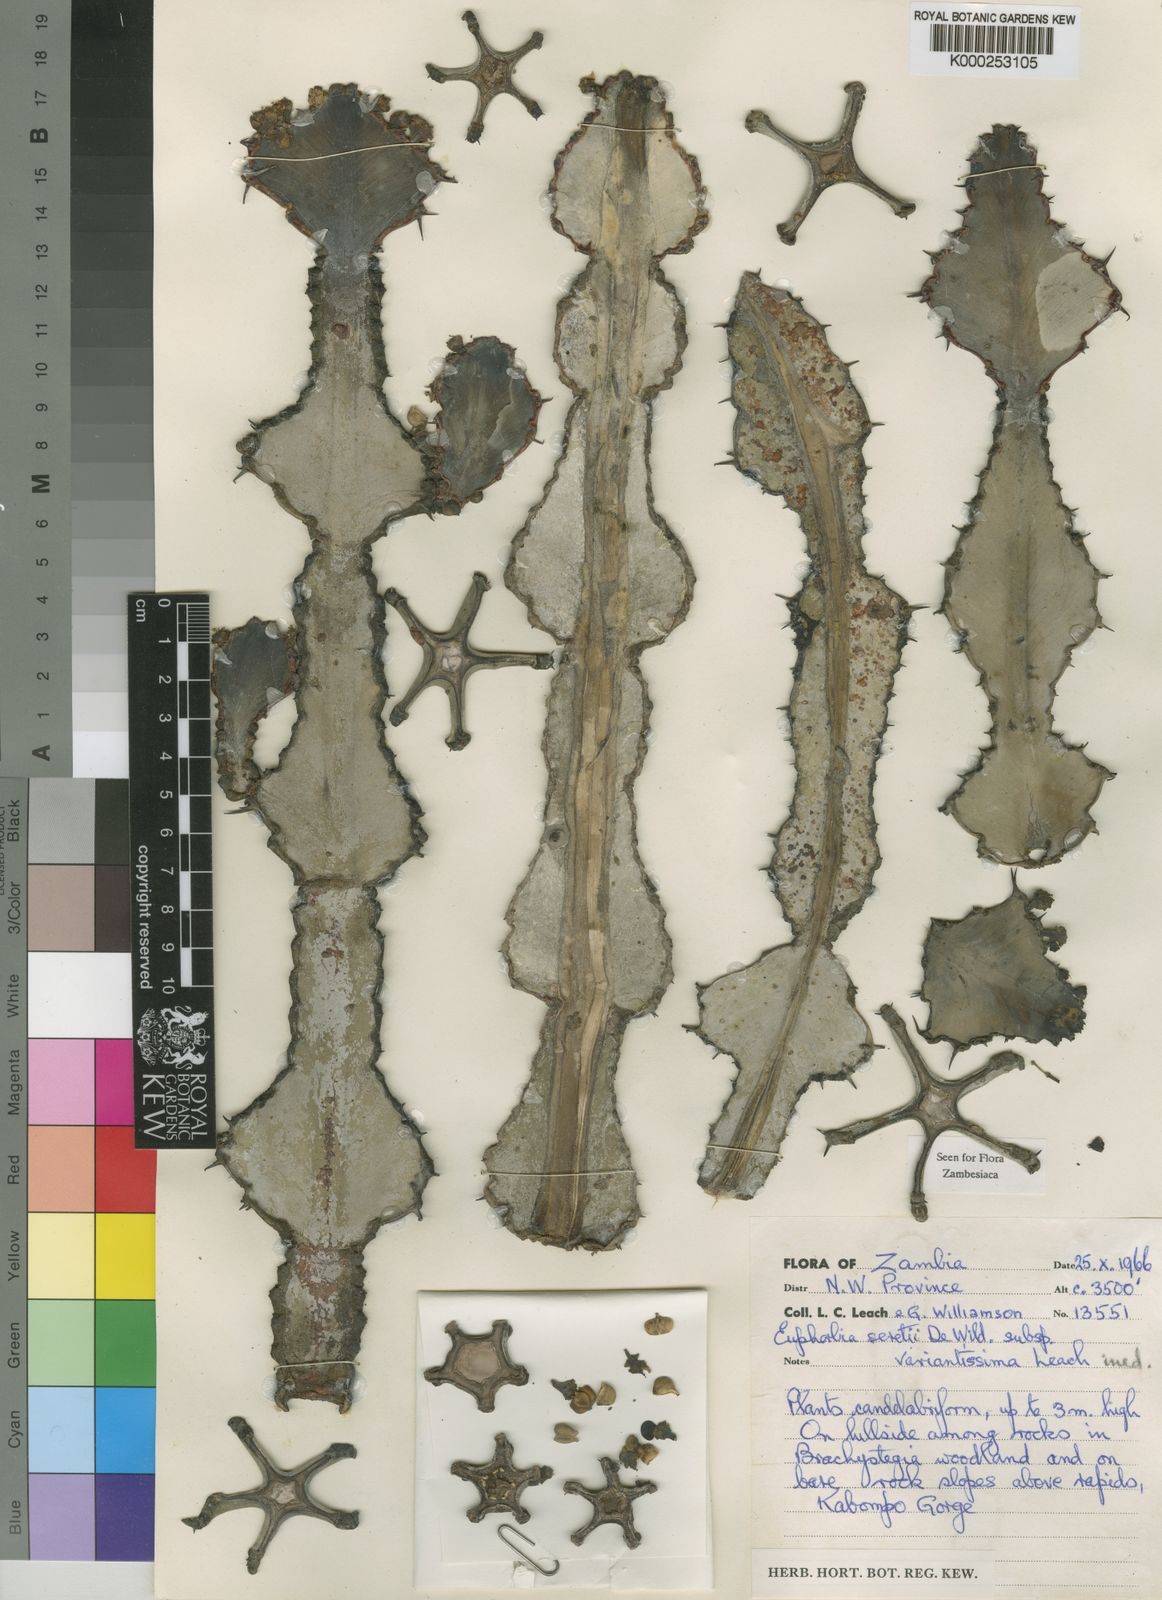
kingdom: Plantae
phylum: Tracheophyta
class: Magnoliopsida
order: Malpighiales
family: Euphorbiaceae
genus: Euphorbia
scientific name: Euphorbia seretii
